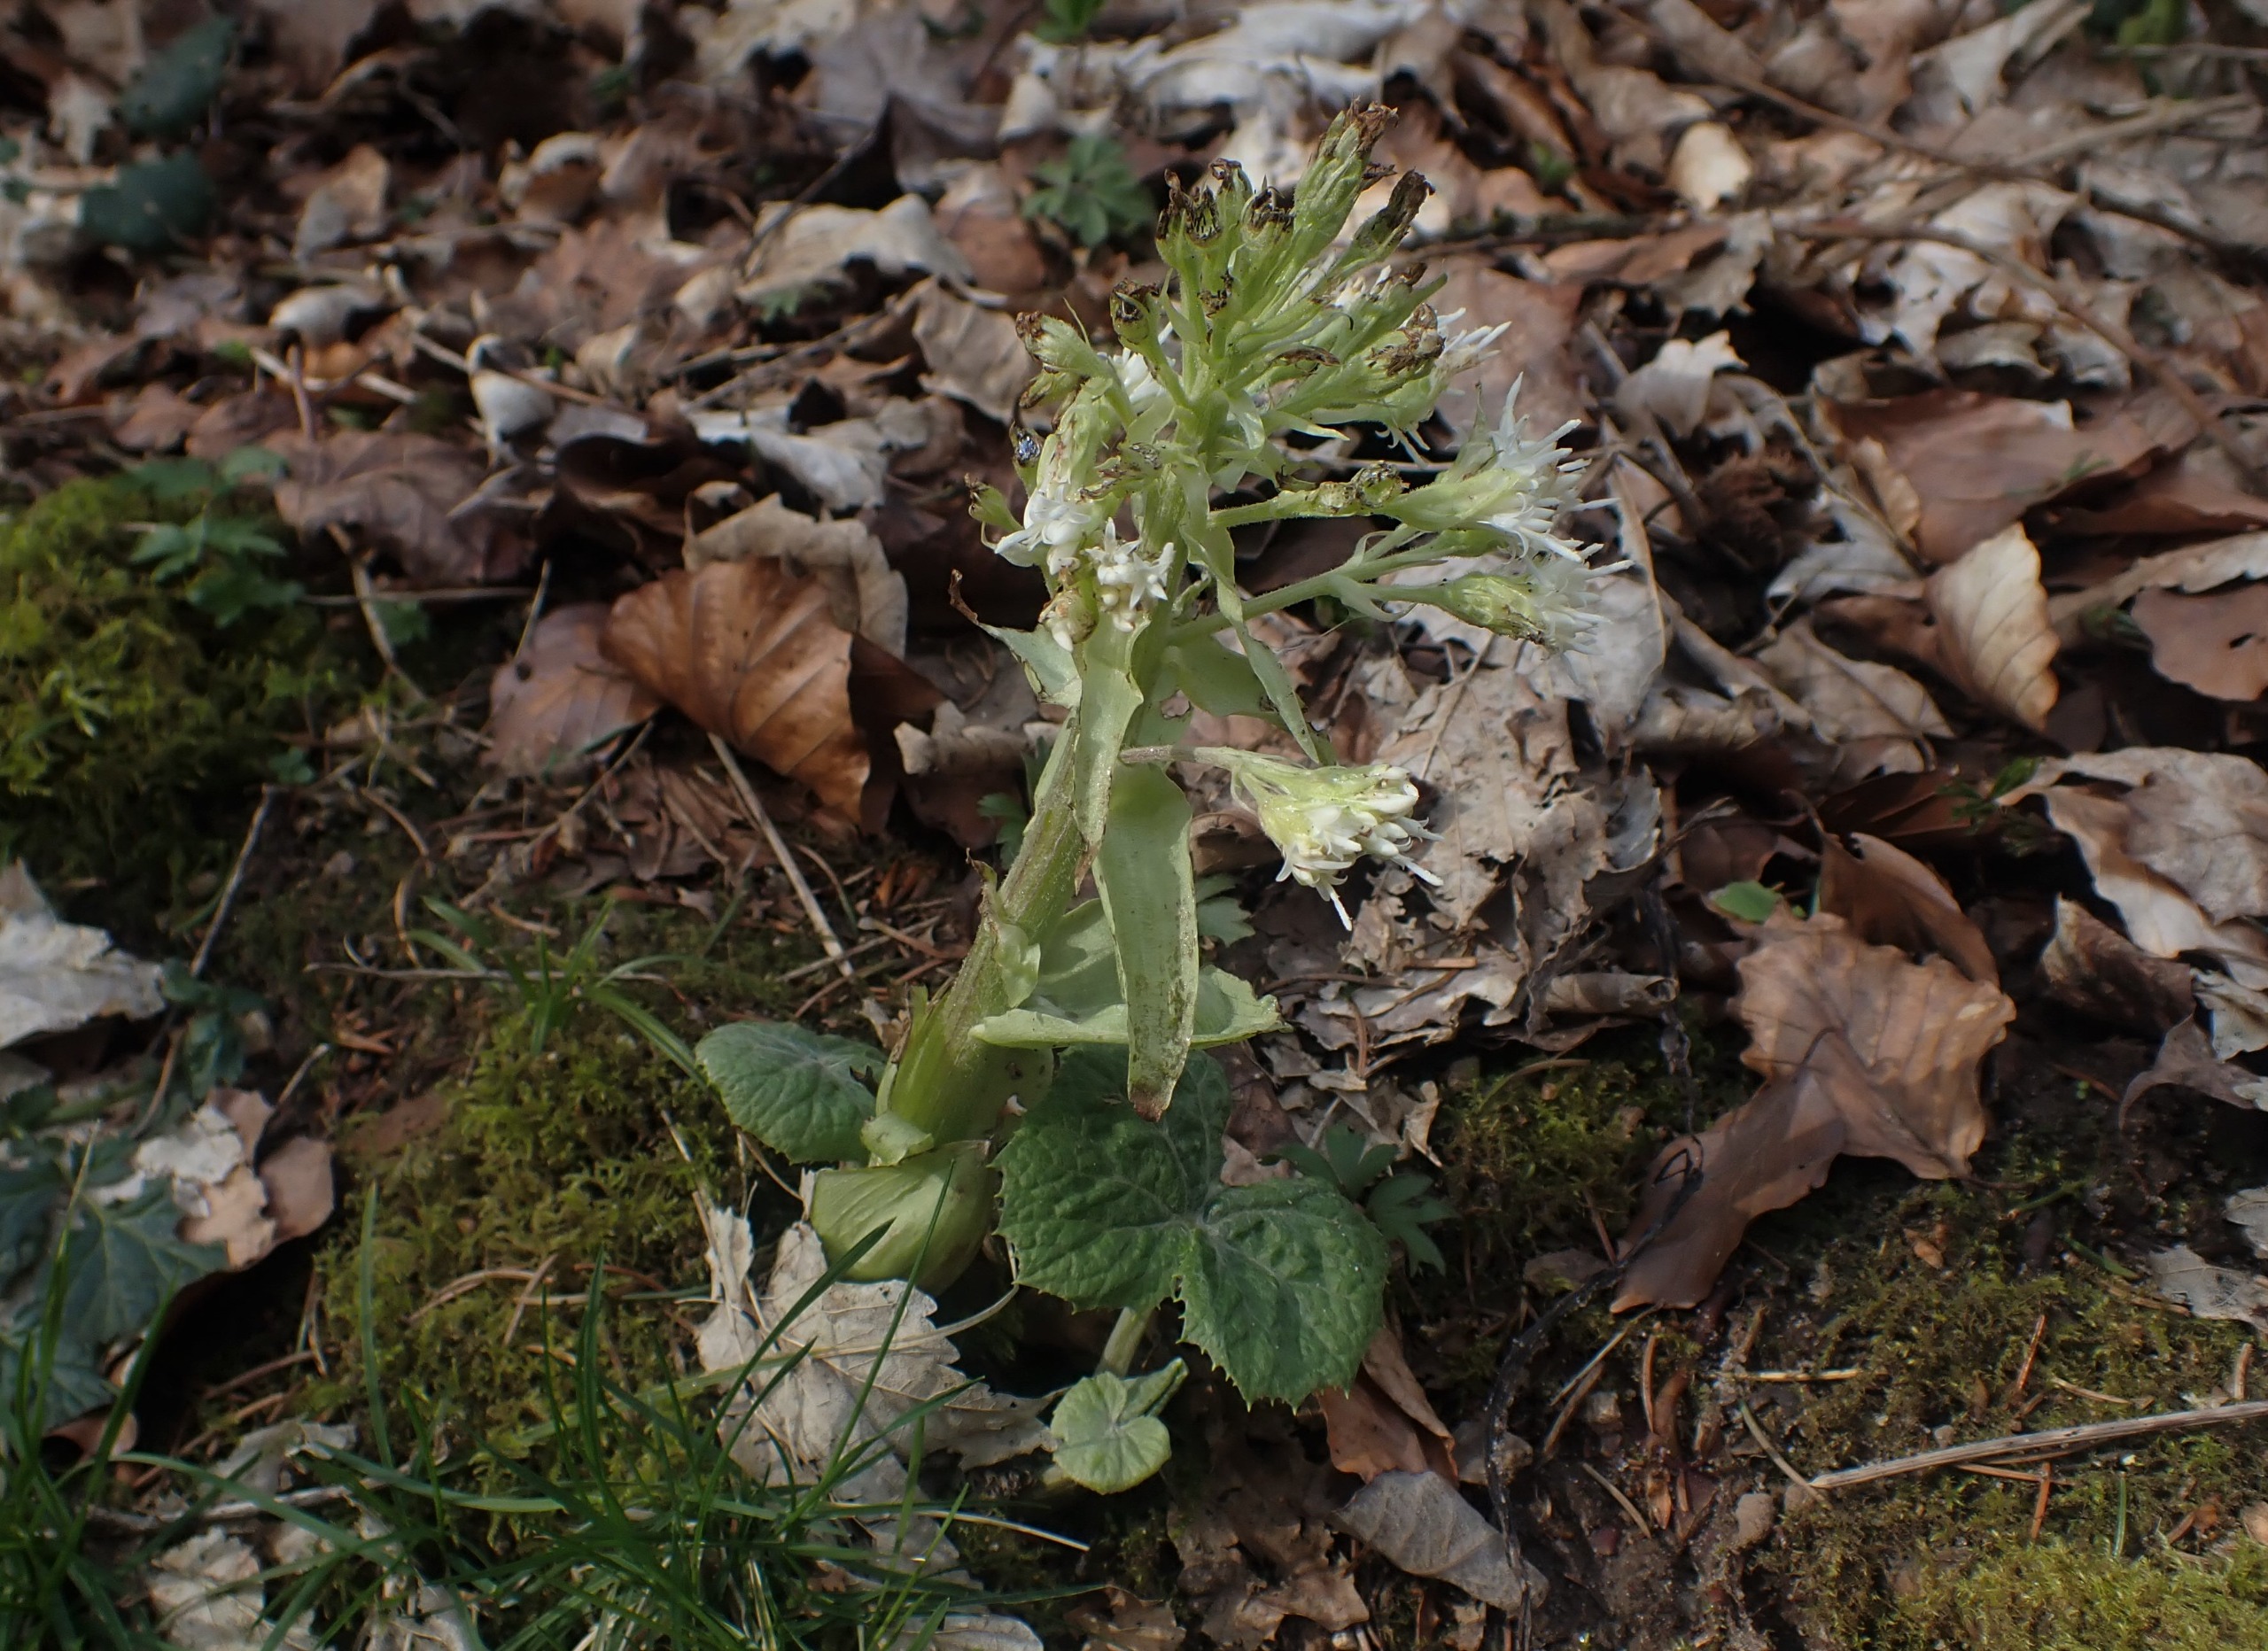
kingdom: Plantae
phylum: Tracheophyta
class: Magnoliopsida
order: Asterales
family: Asteraceae
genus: Petasites
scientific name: Petasites albus
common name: Hvid hestehov
